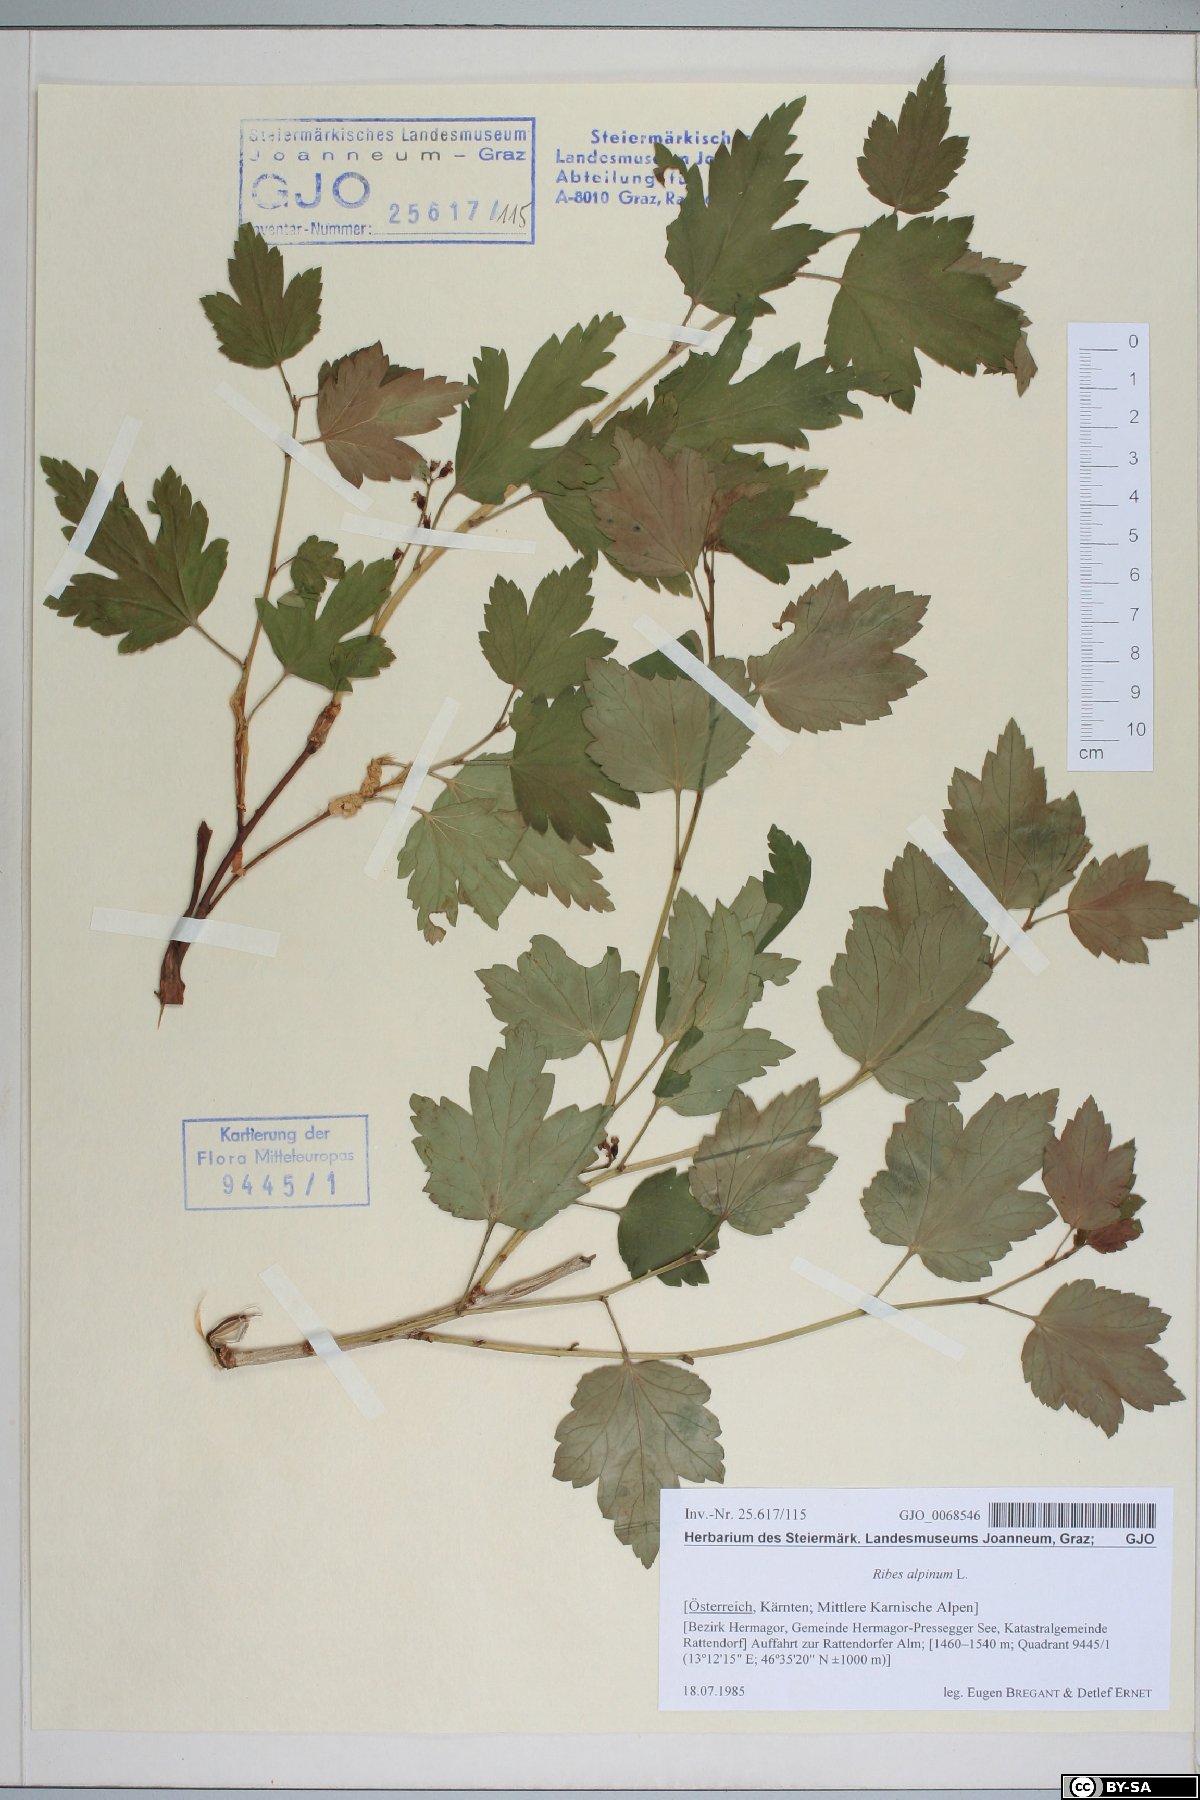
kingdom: Plantae
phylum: Tracheophyta
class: Magnoliopsida
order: Saxifragales
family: Grossulariaceae
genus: Ribes
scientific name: Ribes alpinum
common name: Alpine currant
